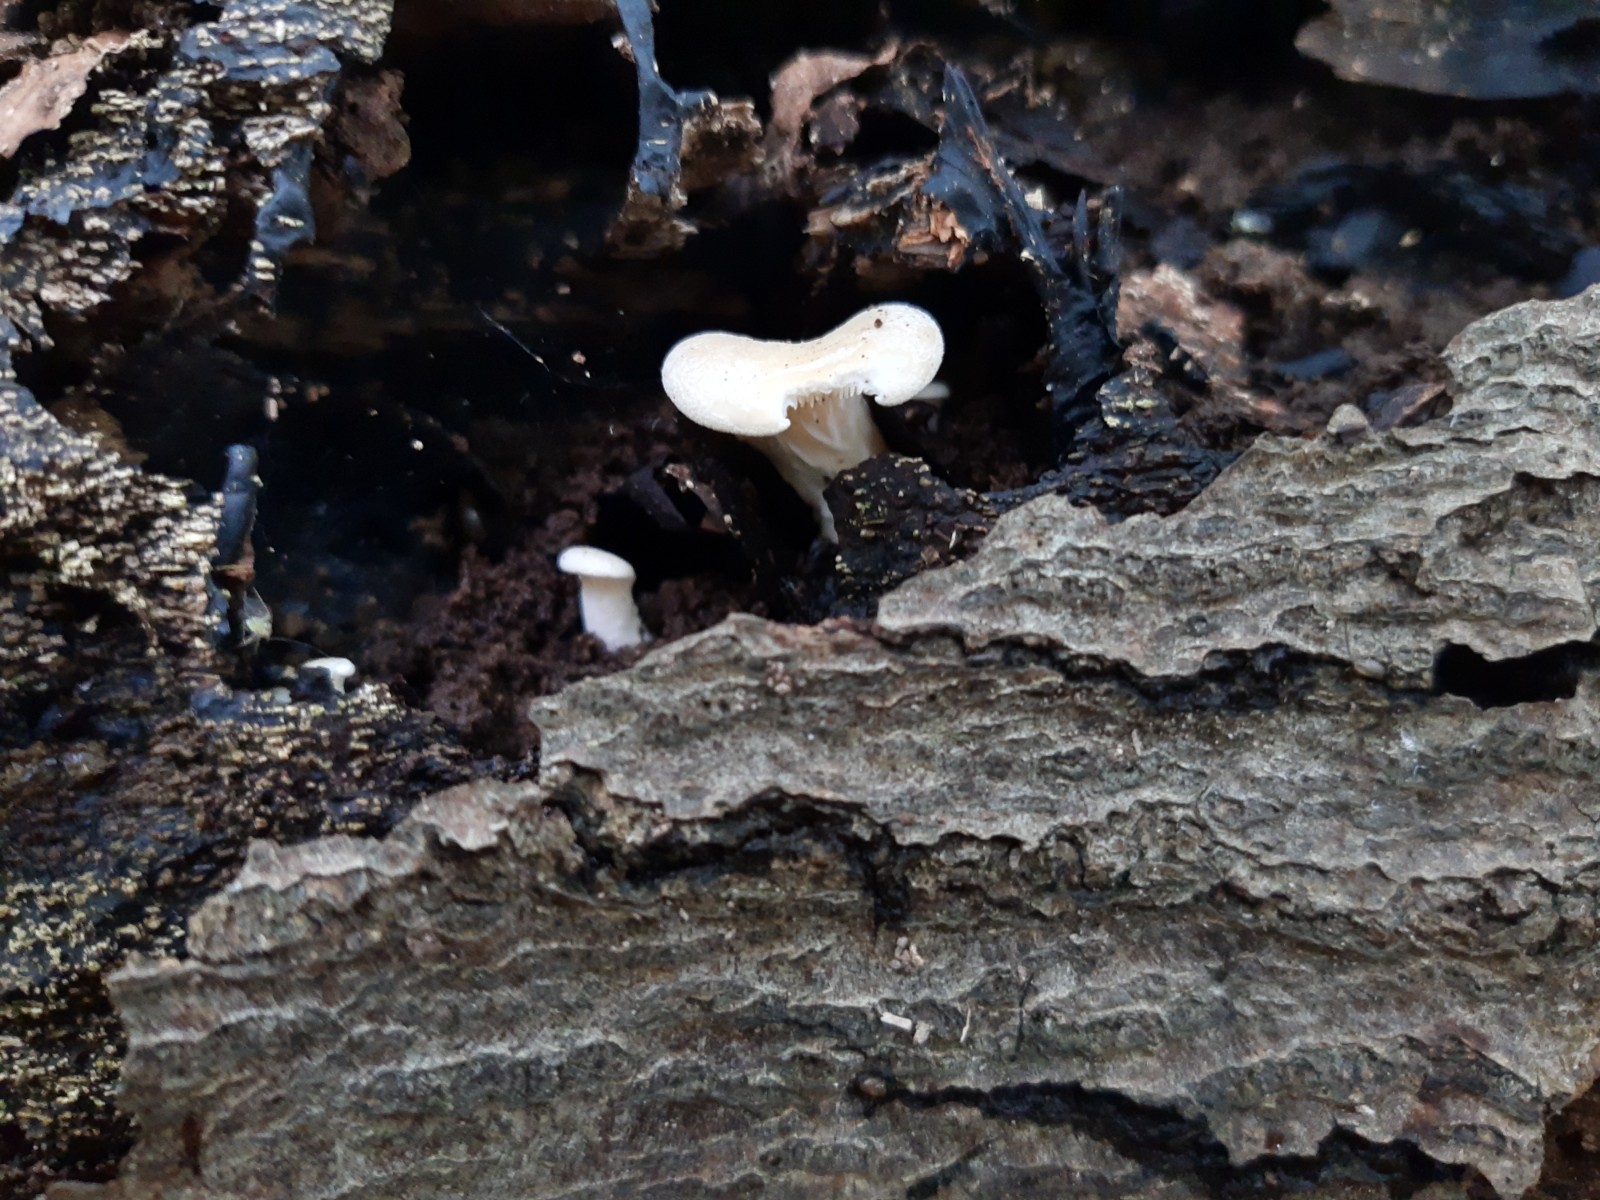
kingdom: Fungi
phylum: Basidiomycota
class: Agaricomycetes
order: Agaricales
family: Pleurotaceae
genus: Hohenbuehelia
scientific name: Hohenbuehelia auriscalpium
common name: spatel-filthat
